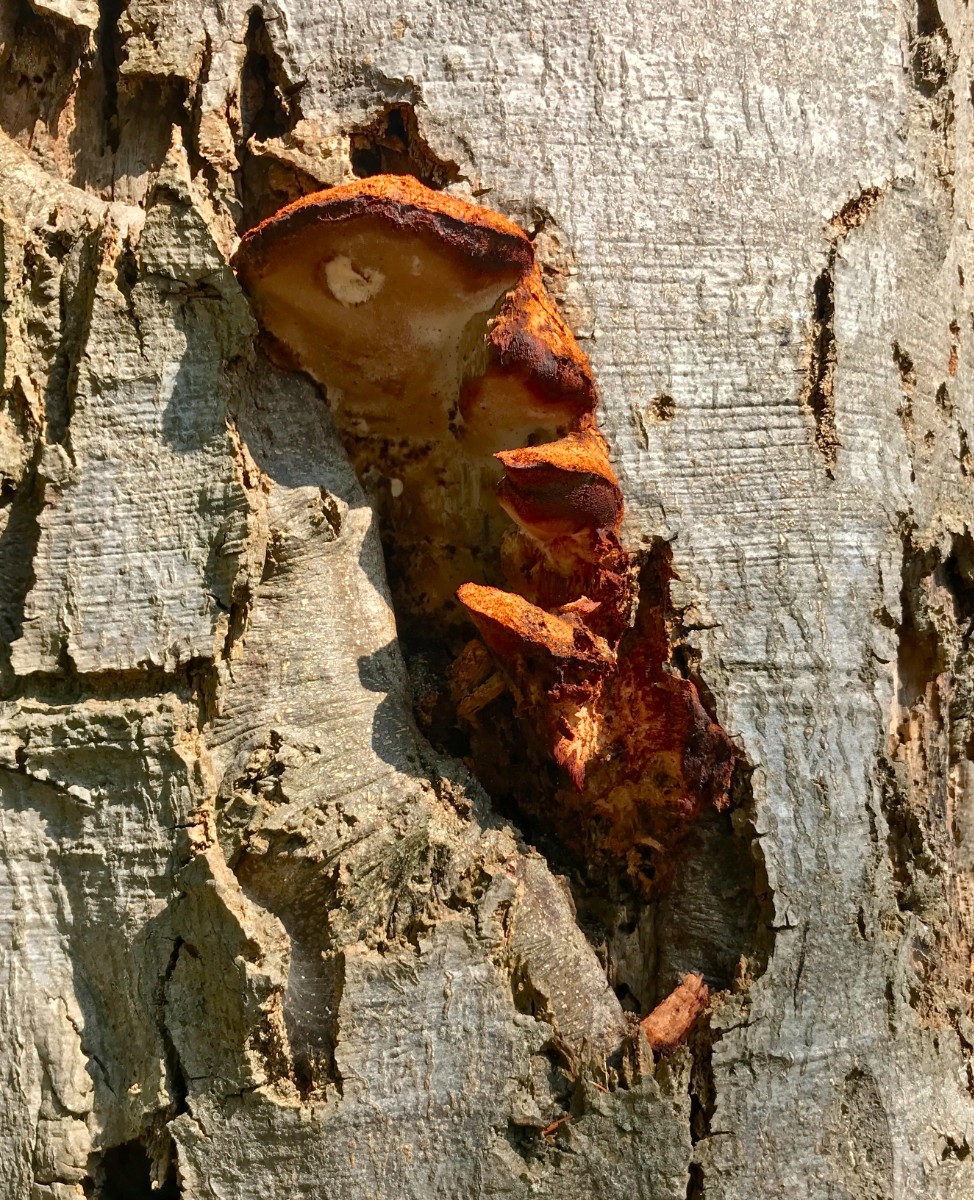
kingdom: Fungi
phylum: Basidiomycota
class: Agaricomycetes
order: Hymenochaetales
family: Hymenochaetaceae
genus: Inonotus
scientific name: Inonotus cuticularis
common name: kroghåret spejlporesvamp
